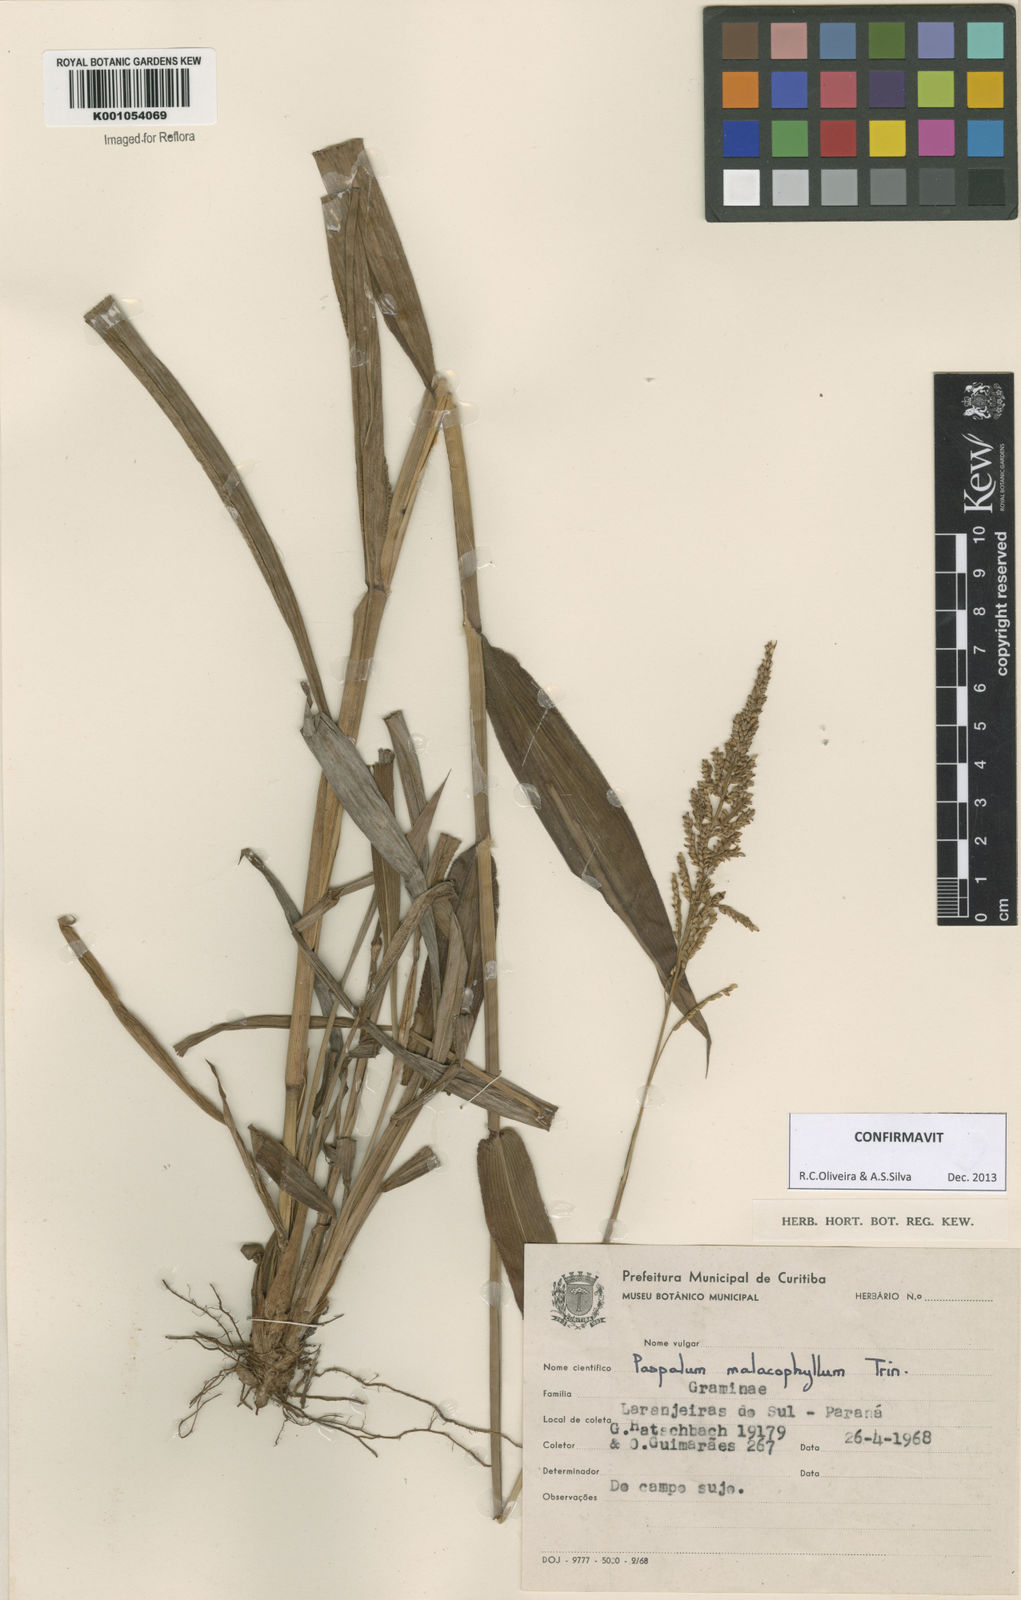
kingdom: Plantae
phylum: Tracheophyta
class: Liliopsida
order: Poales
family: Poaceae
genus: Paspalum
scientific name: Paspalum malacophyllum
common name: Ribbed paspalum
